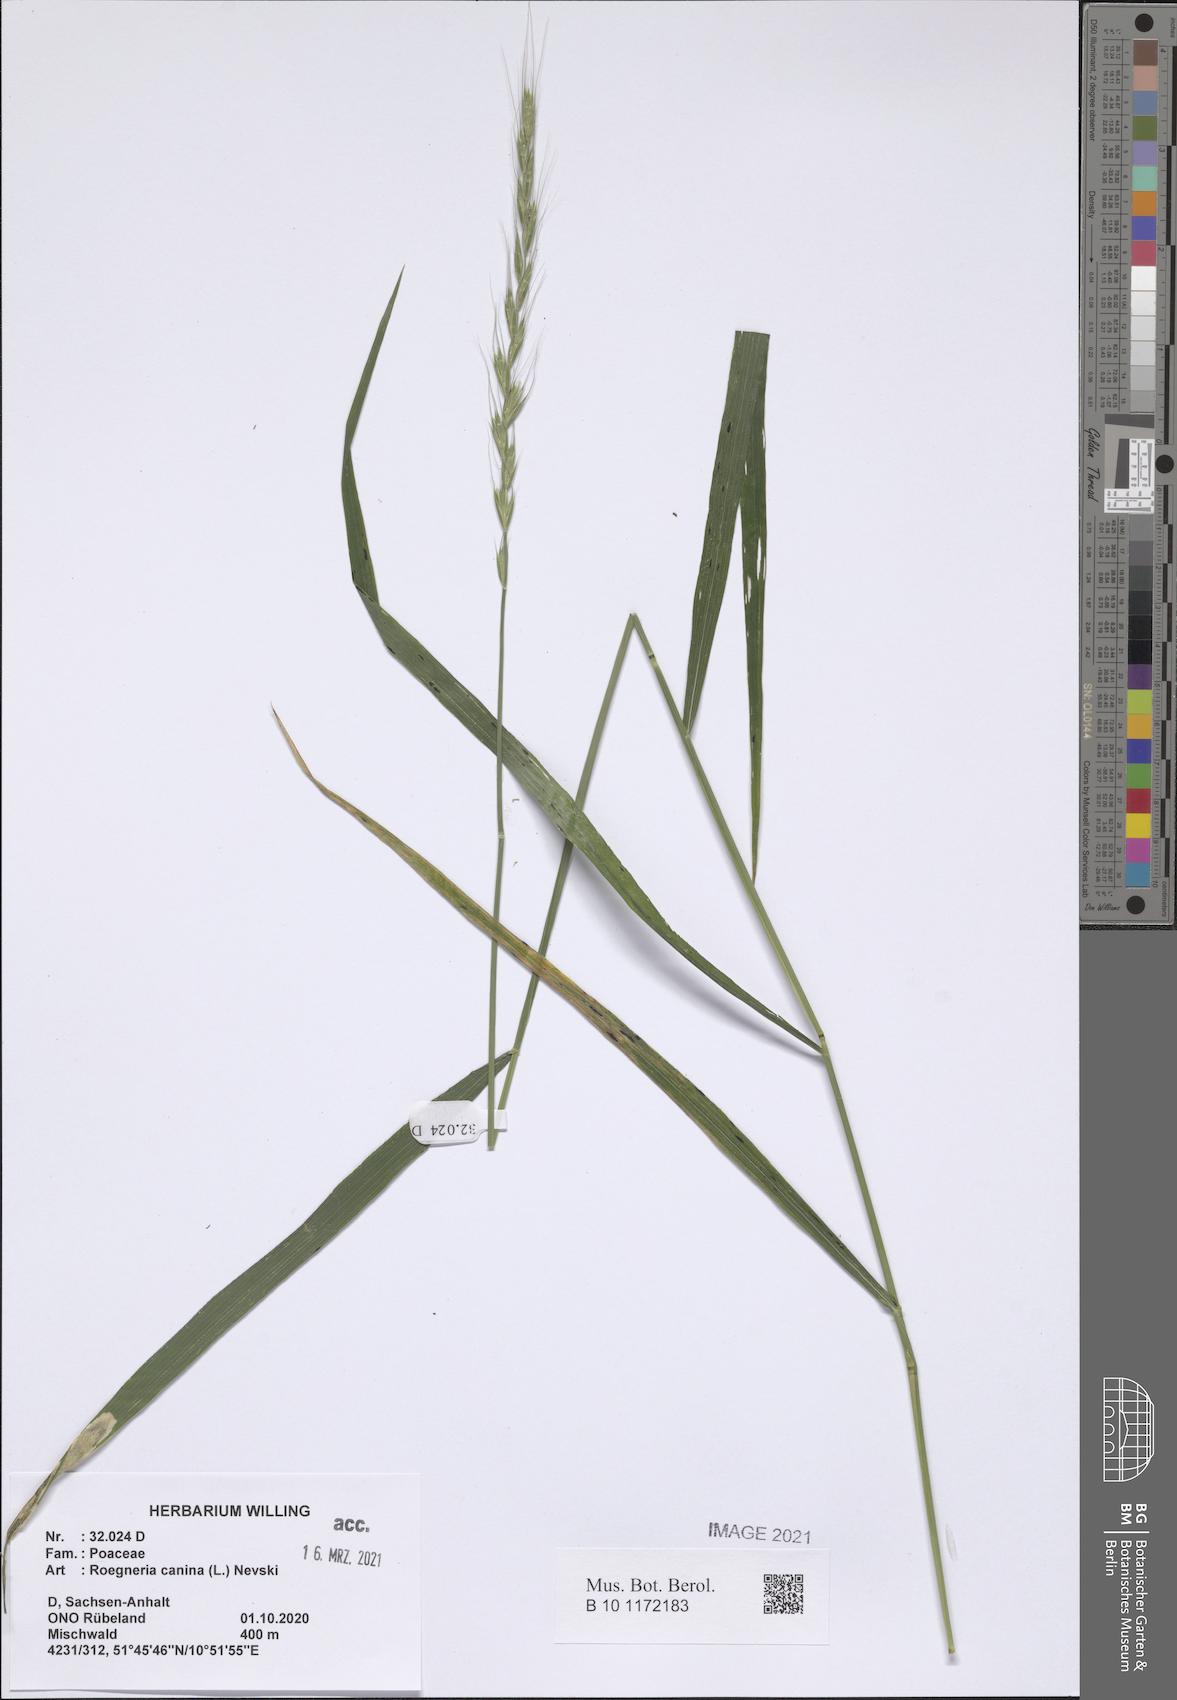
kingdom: Plantae
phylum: Tracheophyta
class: Liliopsida
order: Poales
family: Poaceae
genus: Elymus
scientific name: Elymus caninus
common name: Bearded couch
